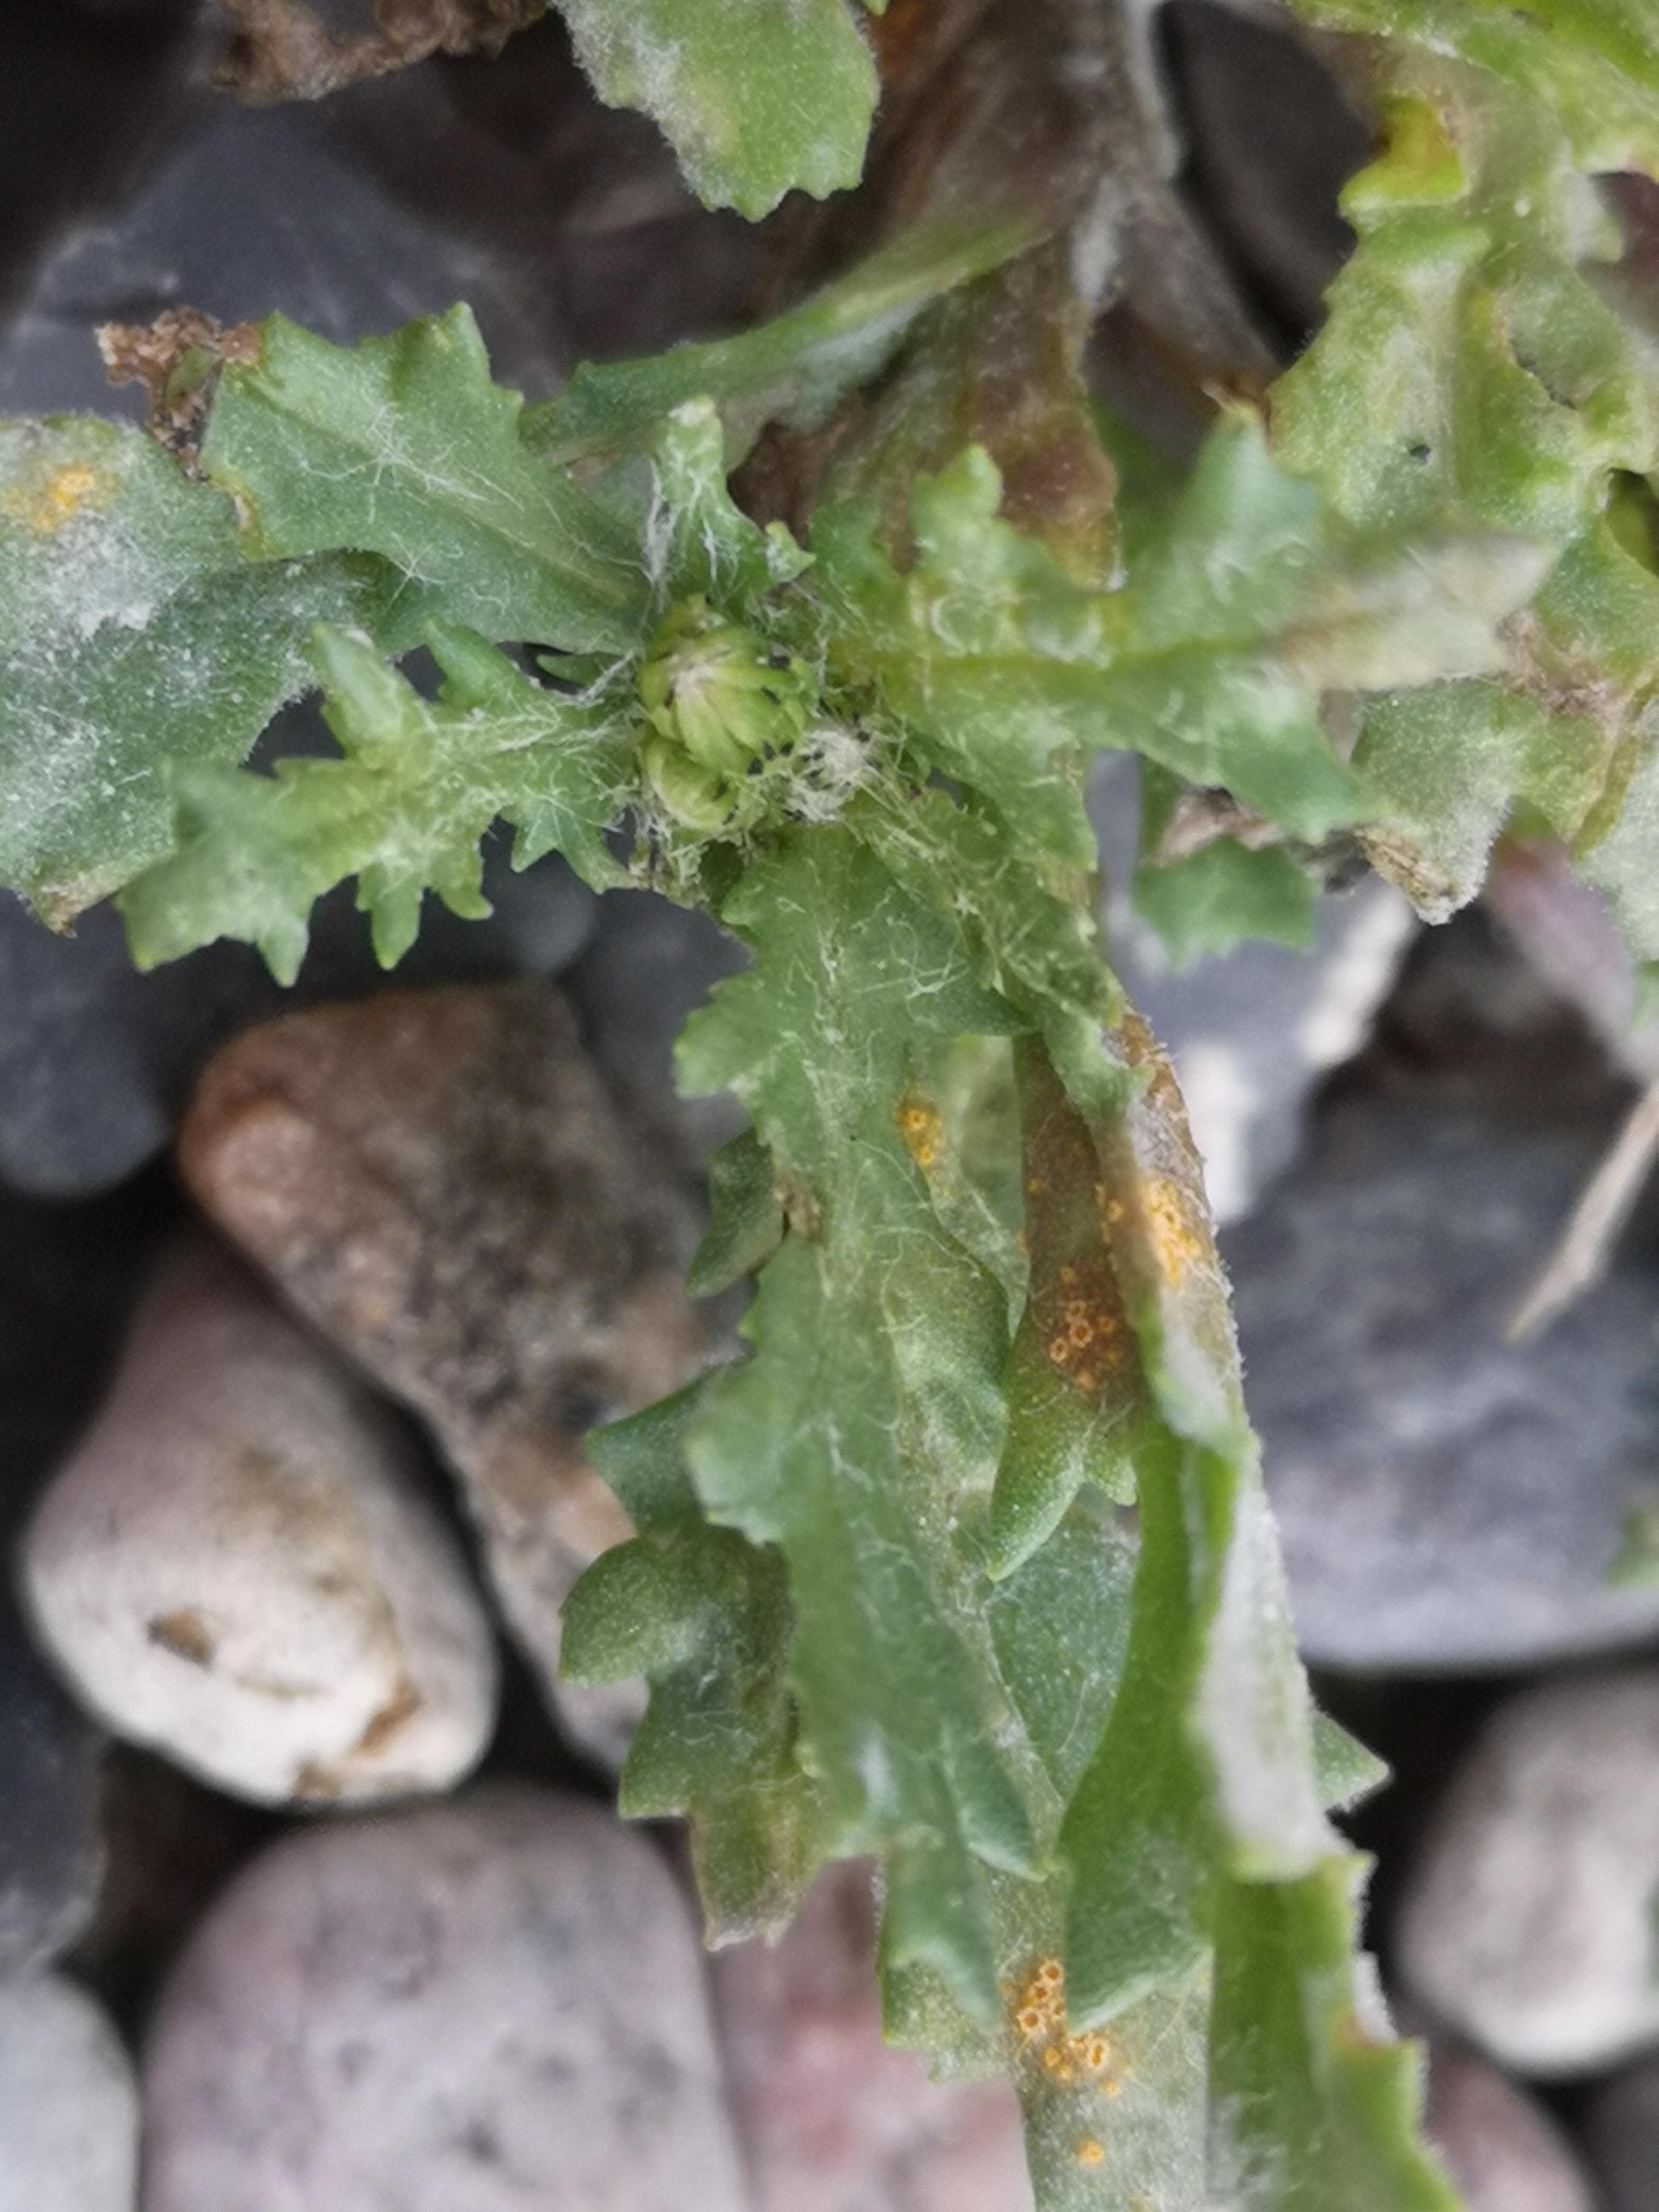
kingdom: Fungi
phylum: Basidiomycota
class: Pucciniomycetes
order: Pucciniales
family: Pucciniaceae
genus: Puccinia
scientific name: Puccinia lagenophorae
